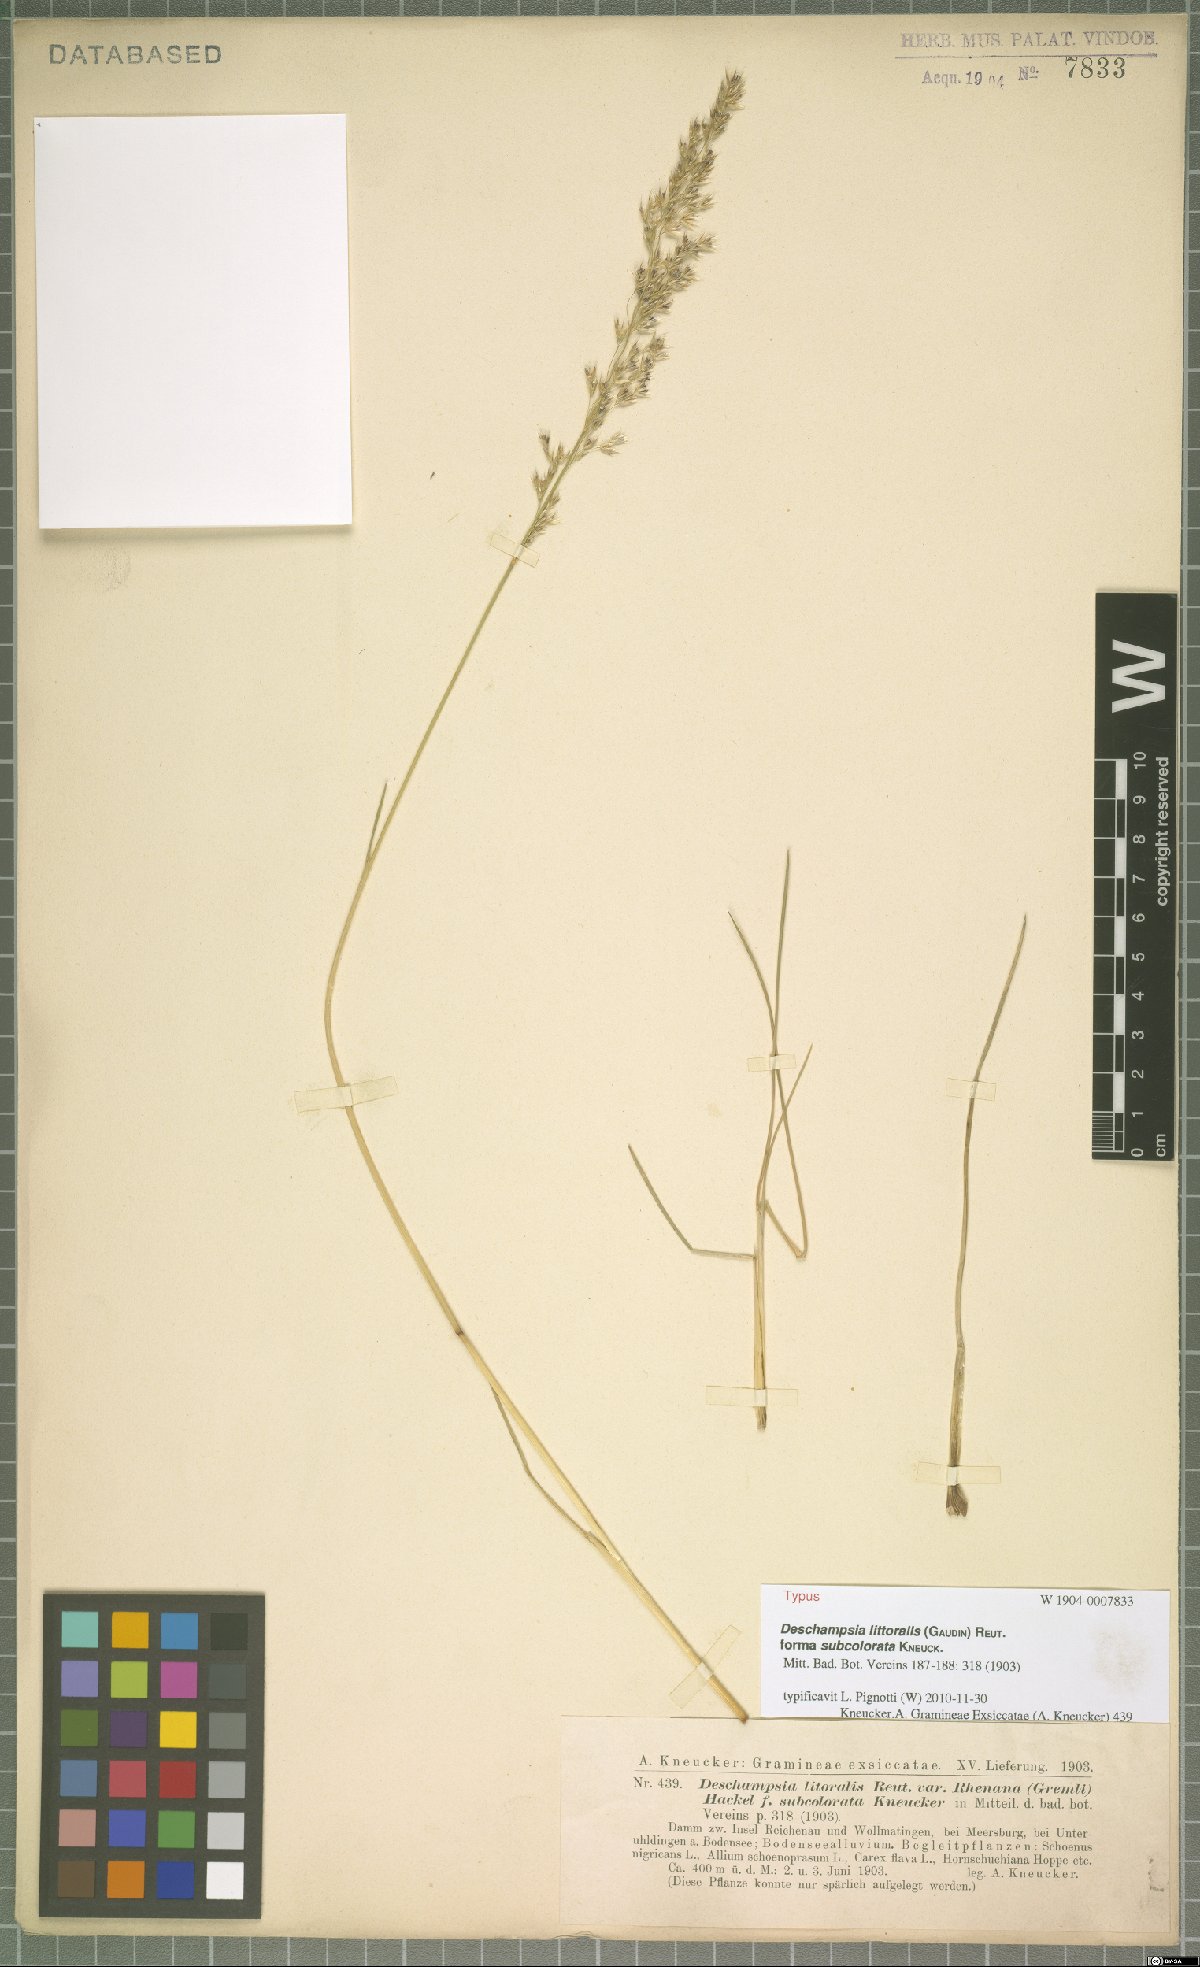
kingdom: Plantae
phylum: Tracheophyta
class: Liliopsida
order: Poales
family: Poaceae
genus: Deschampsia
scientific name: Deschampsia cespitosa
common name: Tufted hair-grass
